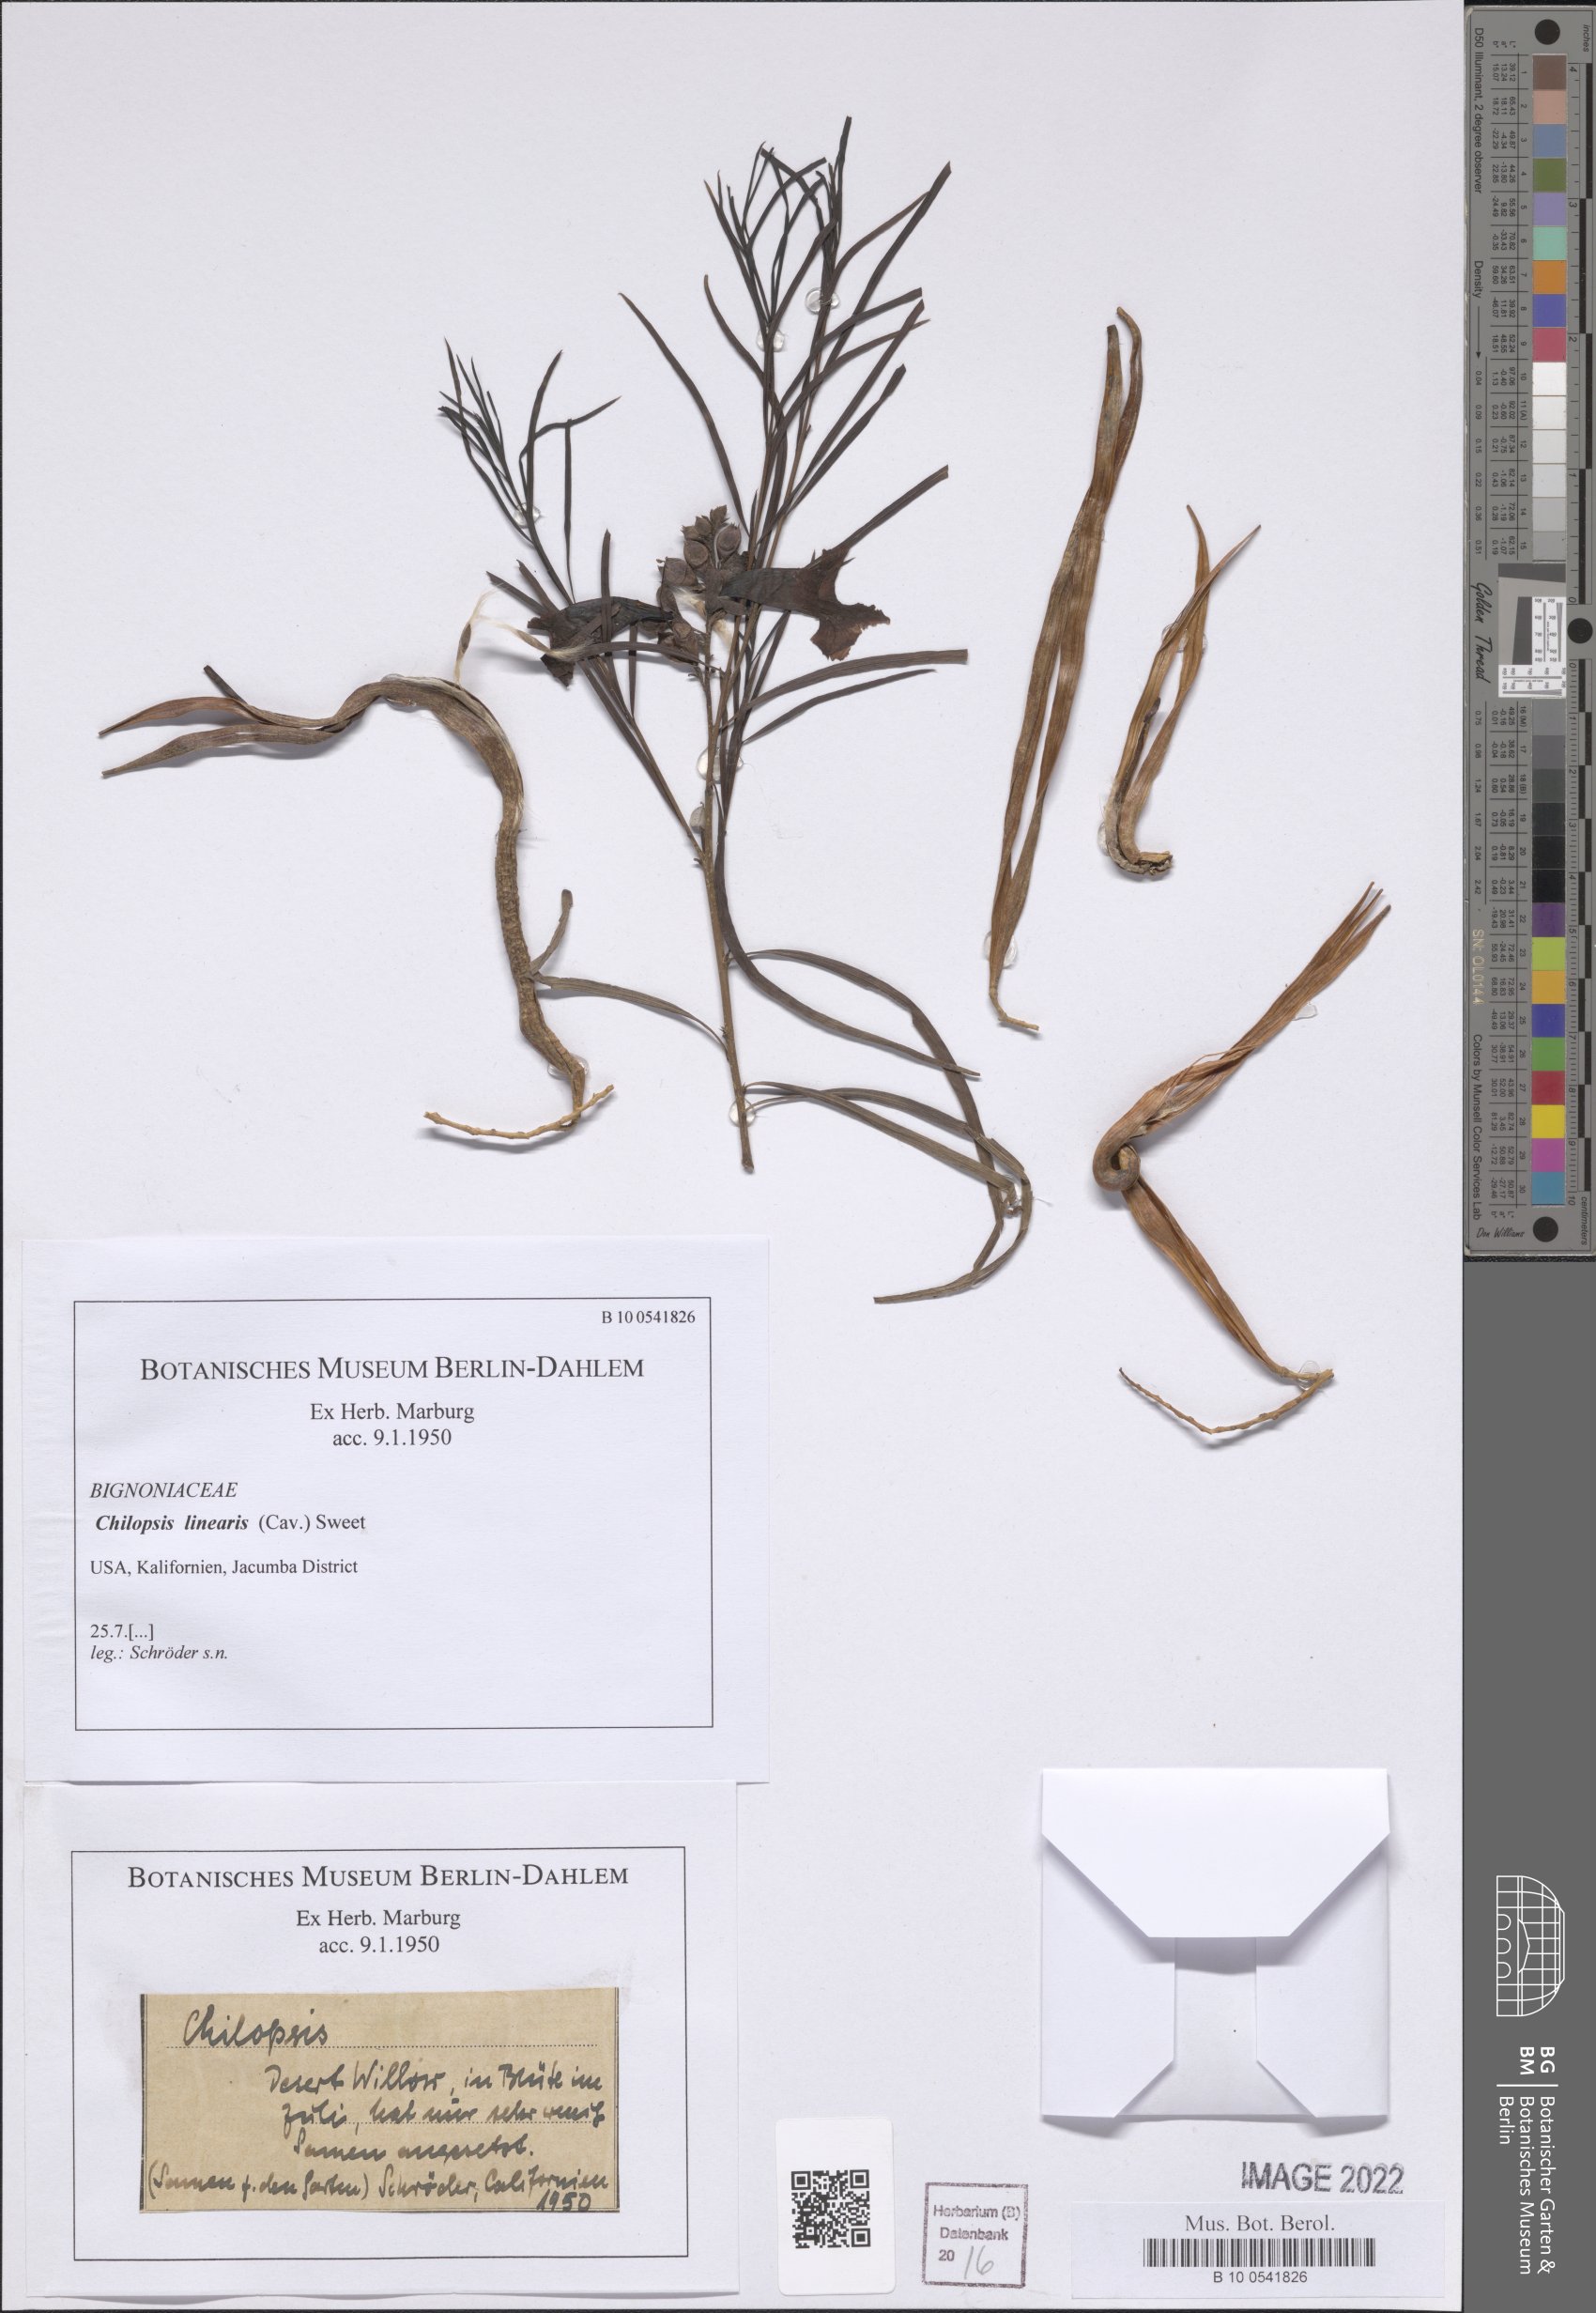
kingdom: Plantae
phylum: Tracheophyta
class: Magnoliopsida
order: Lamiales
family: Bignoniaceae
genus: Chilopsis
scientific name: Chilopsis linearis
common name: Desert-willow
